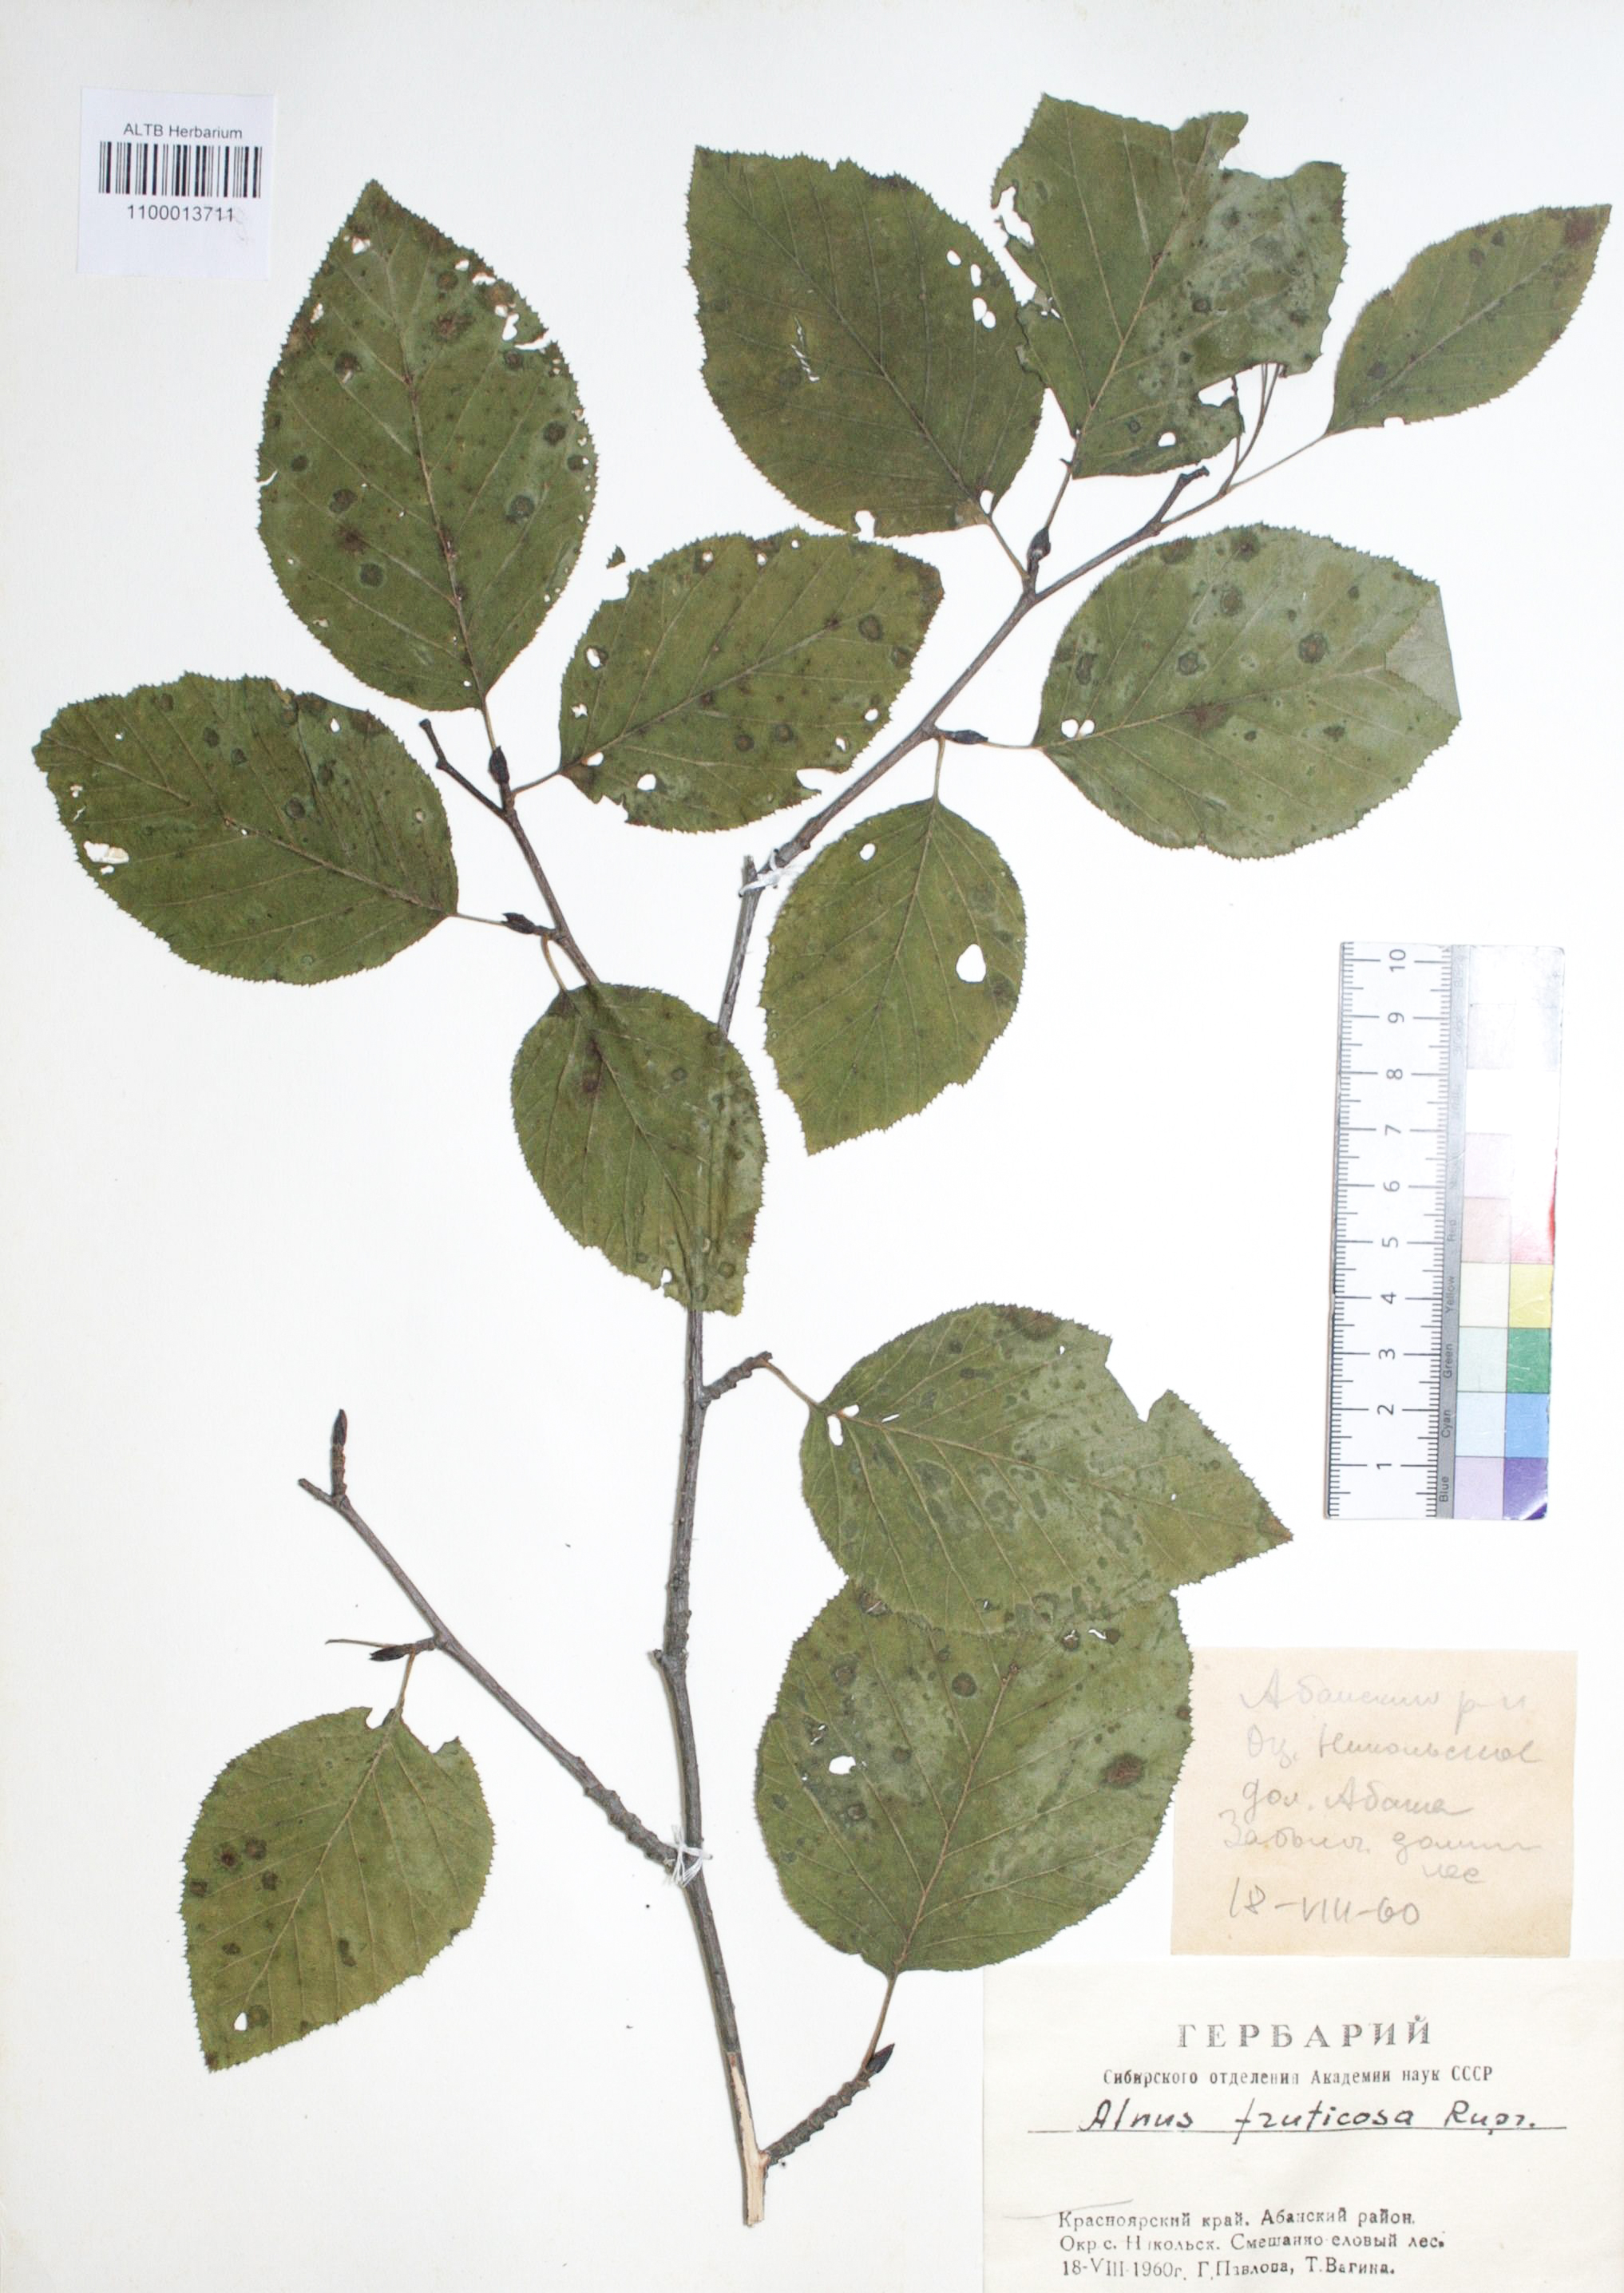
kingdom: Plantae
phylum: Tracheophyta
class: Magnoliopsida
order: Fagales
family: Betulaceae
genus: Alnus
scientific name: Alnus alnobetula
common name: Green alder
